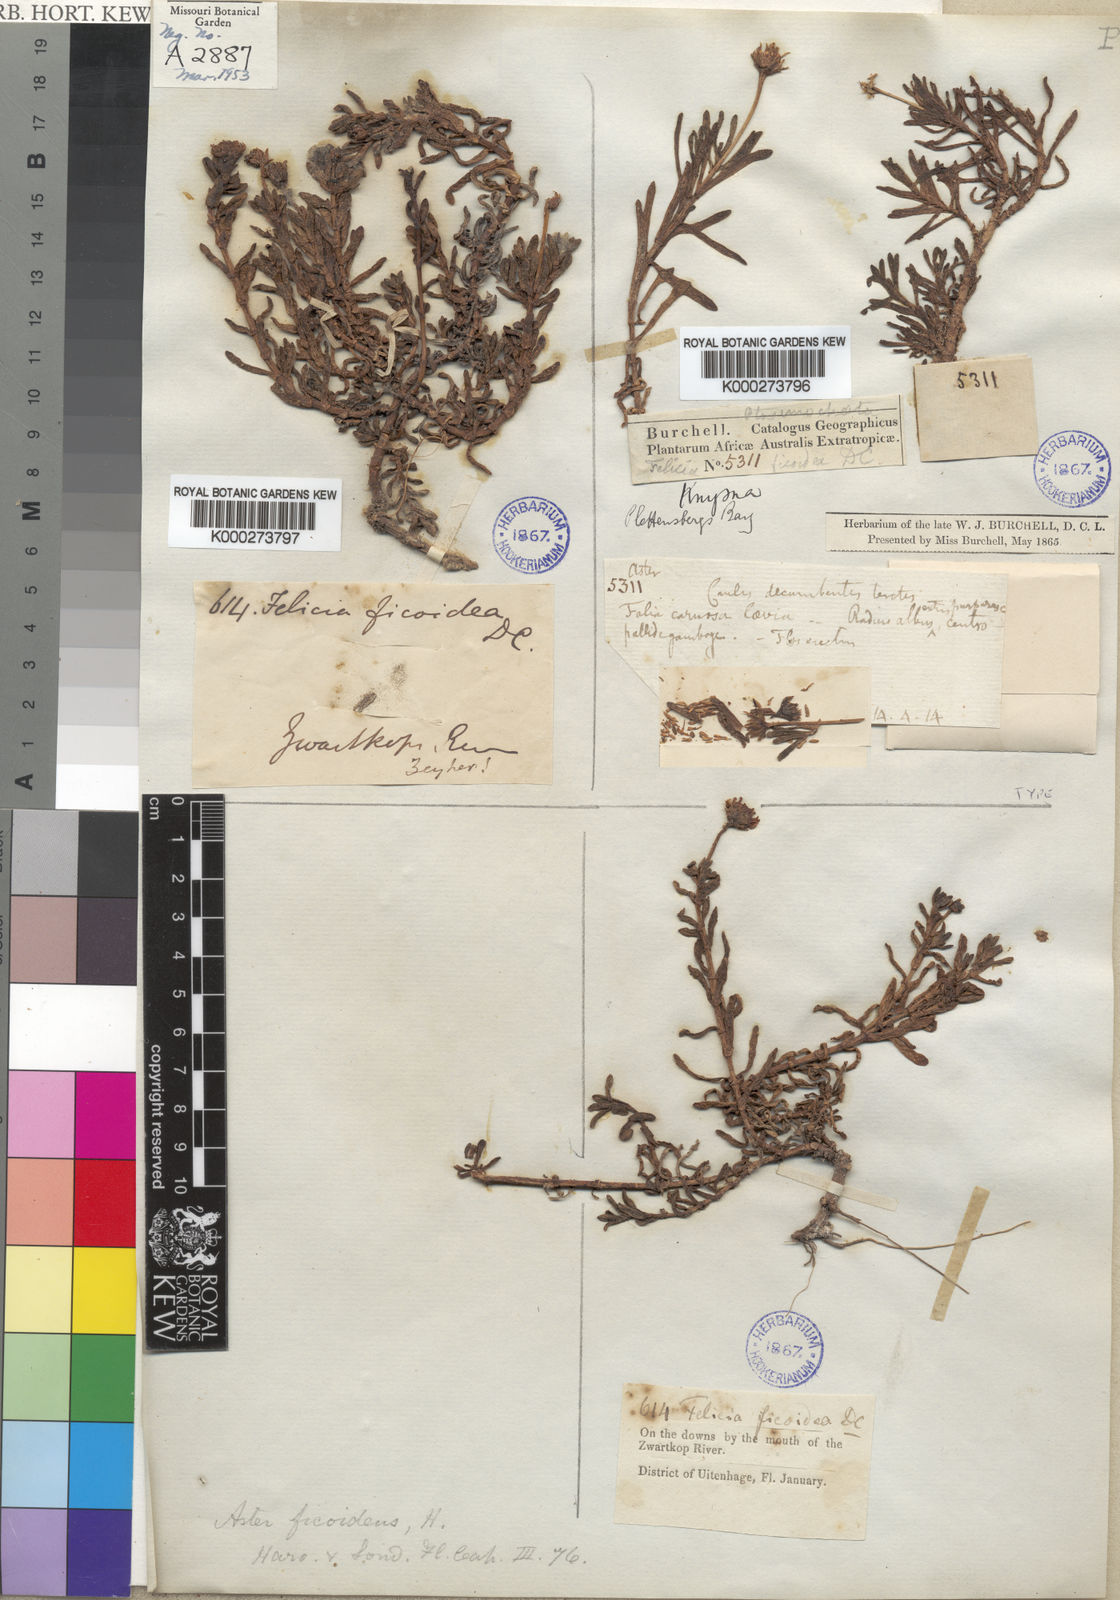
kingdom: Plantae
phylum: Tracheophyta
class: Magnoliopsida
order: Asterales
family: Asteraceae
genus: Poecilolepis
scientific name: Poecilolepis ficoidea
